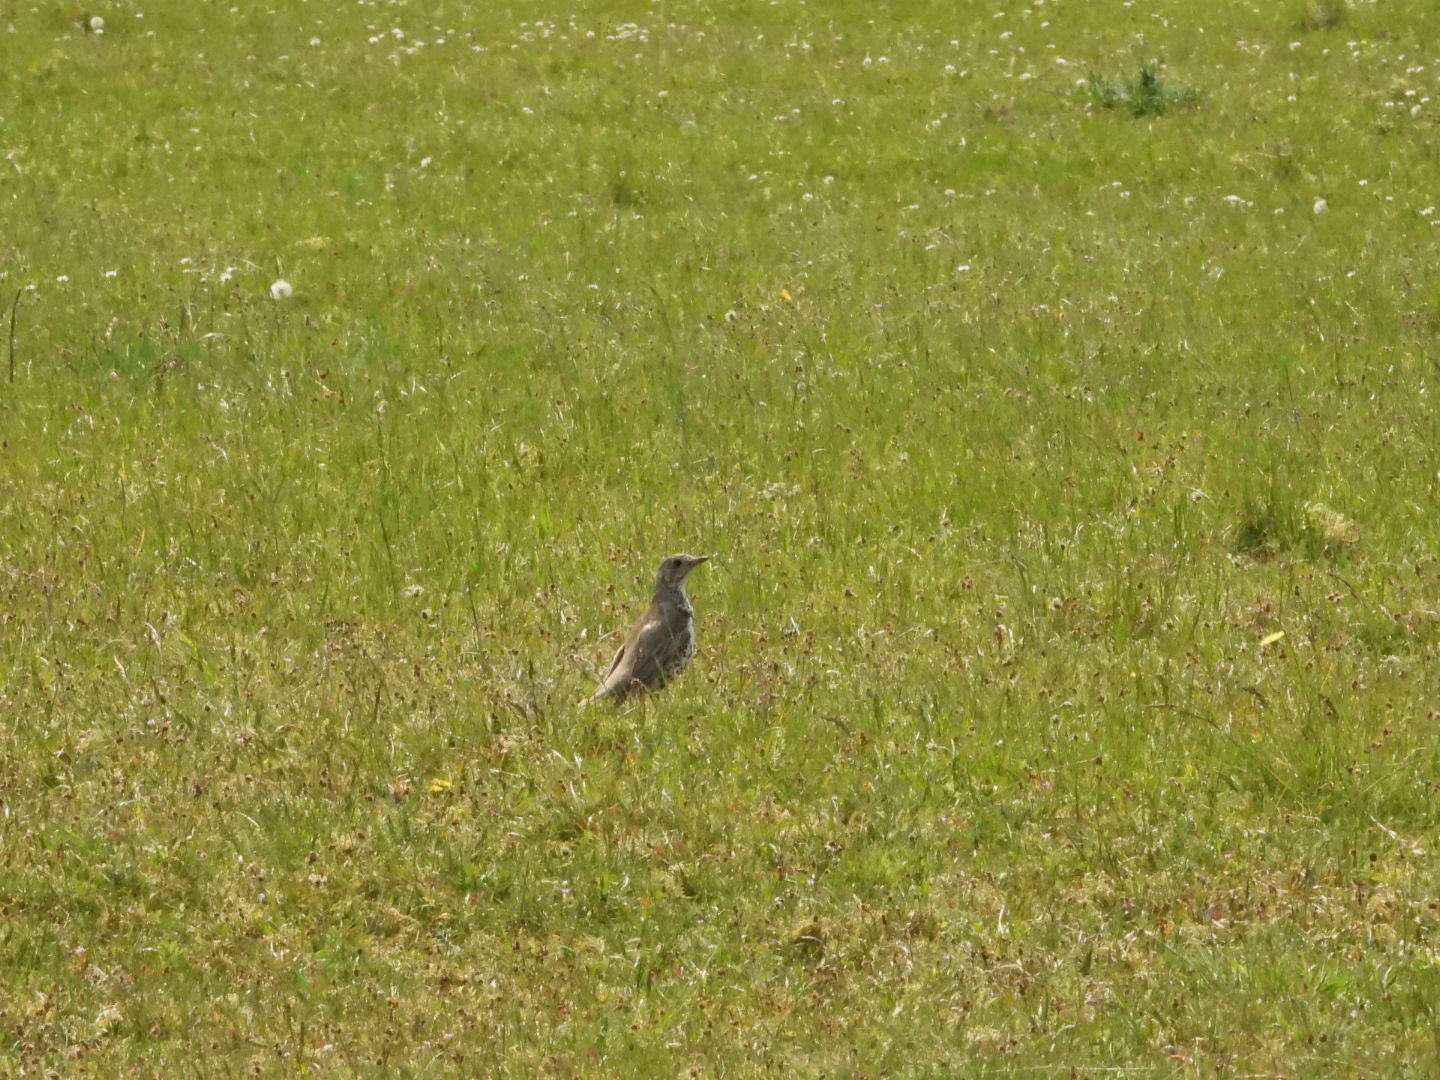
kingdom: Animalia
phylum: Chordata
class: Aves
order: Passeriformes
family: Turdidae
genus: Turdus
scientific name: Turdus viscivorus
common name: Misteldrossel
